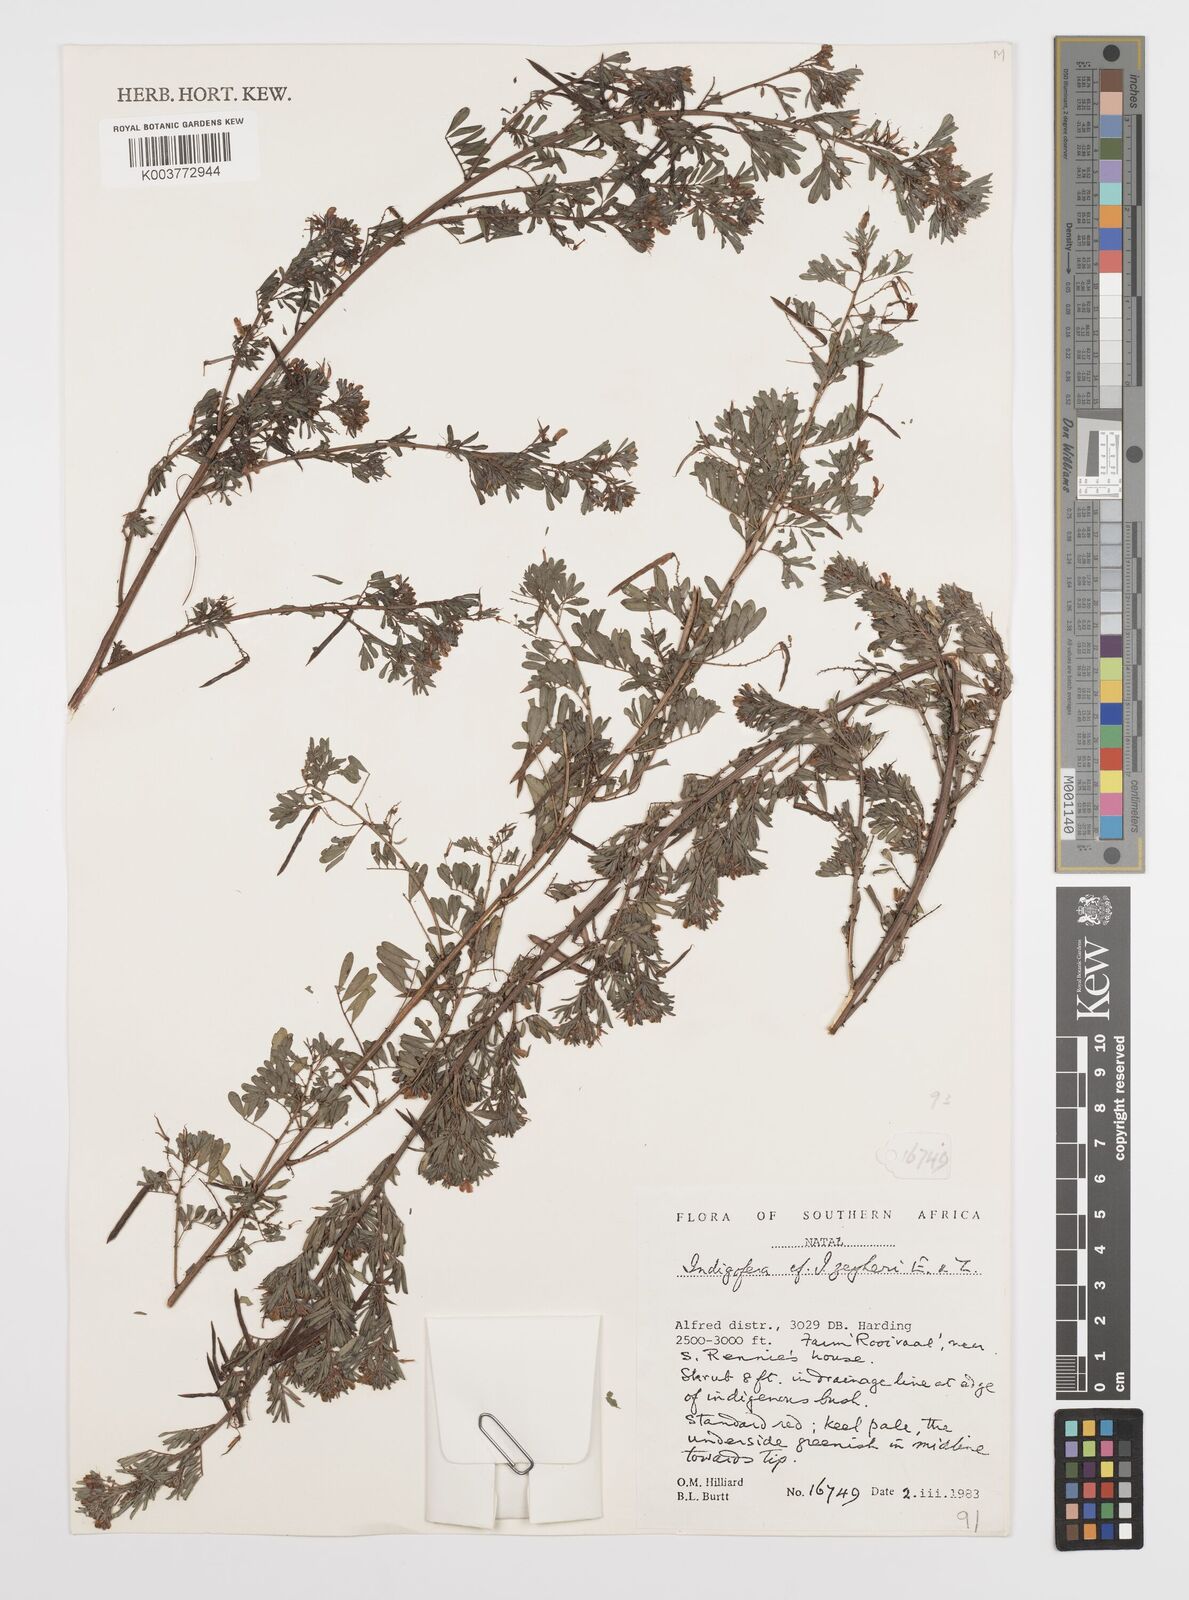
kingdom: Plantae
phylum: Tracheophyta
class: Magnoliopsida
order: Fabales
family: Fabaceae
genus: Indigofera
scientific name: Indigofera
